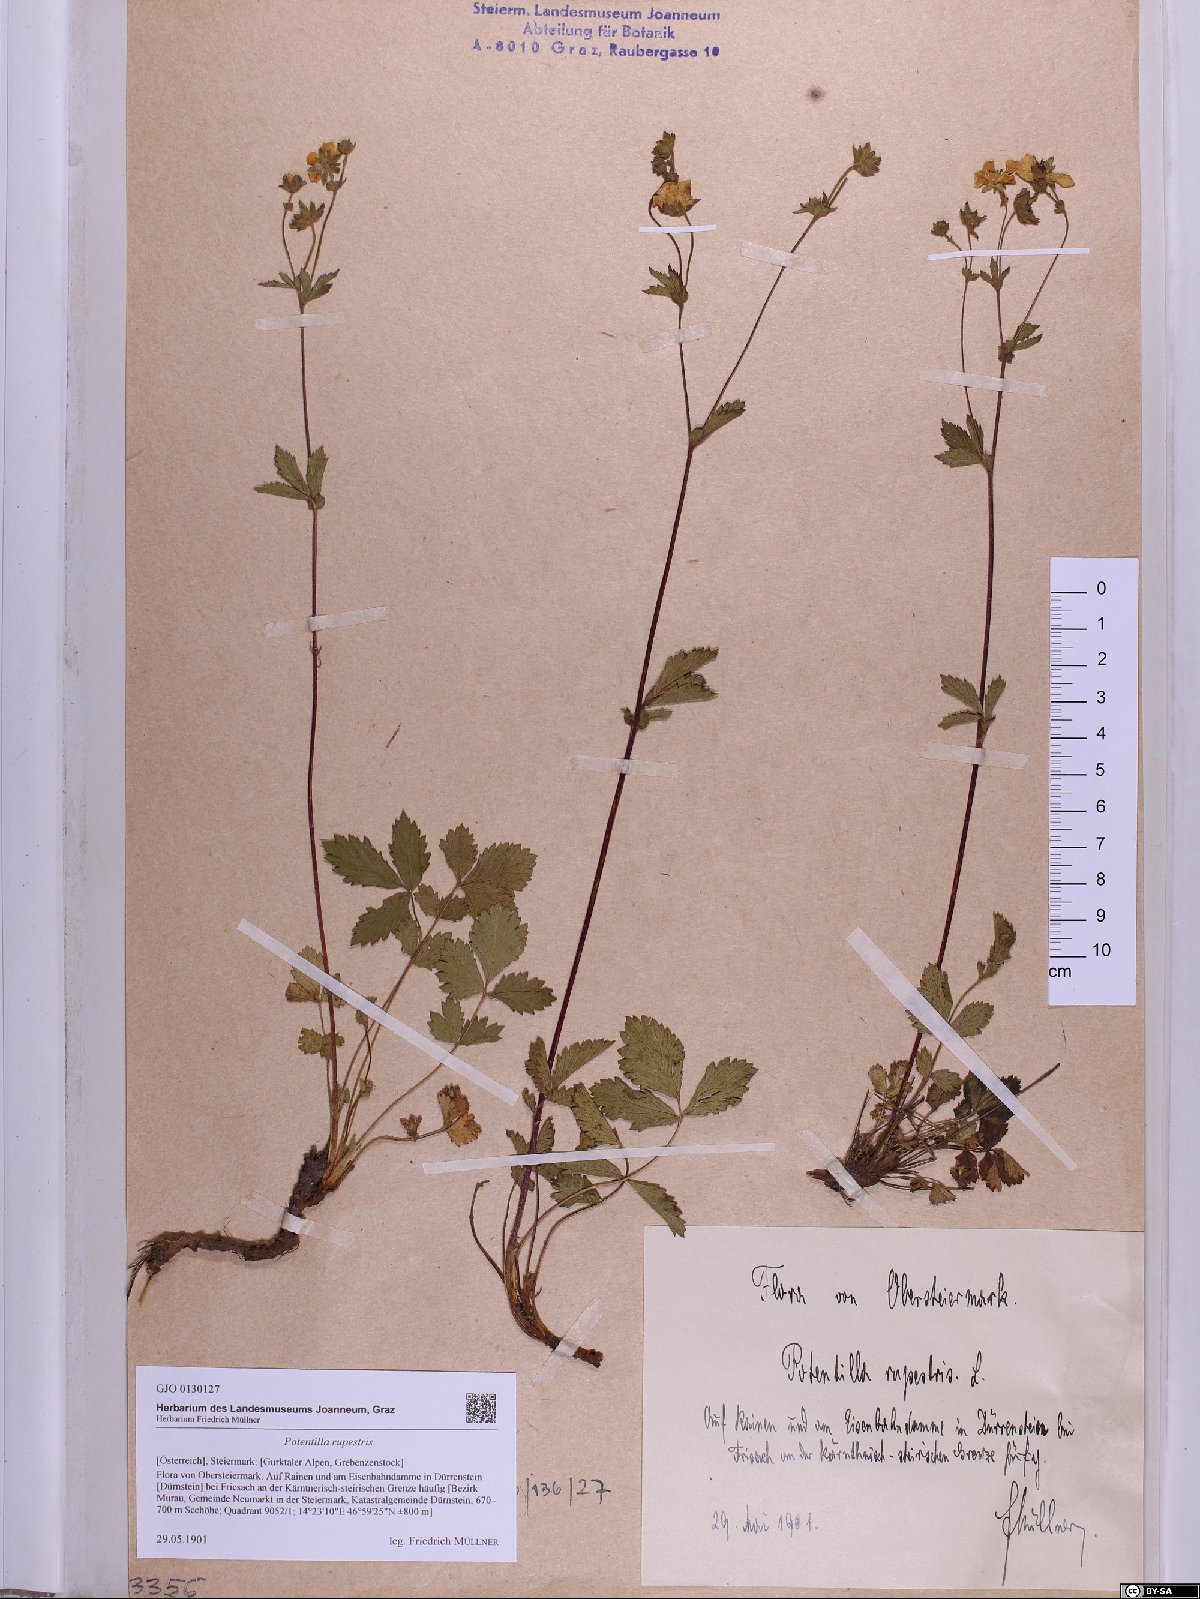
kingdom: Plantae
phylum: Tracheophyta
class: Magnoliopsida
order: Rosales
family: Rosaceae
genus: Drymocallis
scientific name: Drymocallis rupestris
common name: Rock cinquefoil
